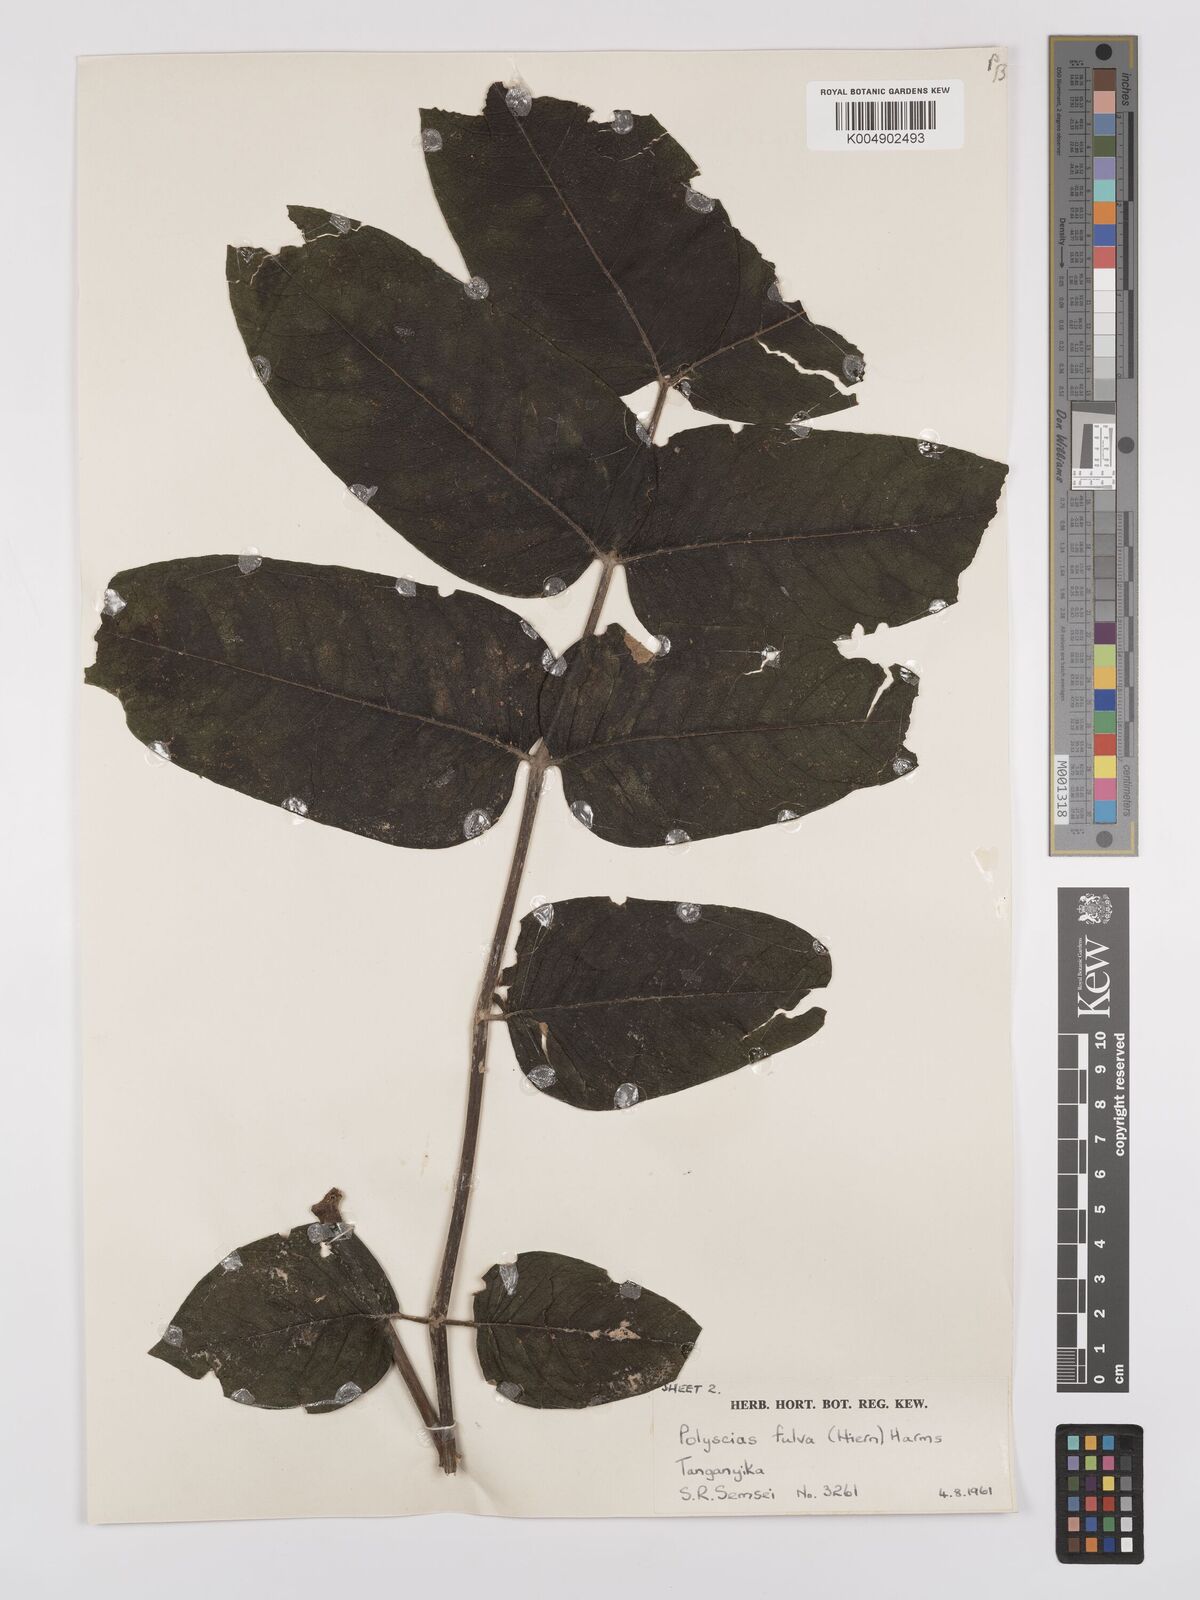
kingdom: Plantae
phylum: Tracheophyta
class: Magnoliopsida
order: Apiales
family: Araliaceae
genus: Polyscias
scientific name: Polyscias fulva
